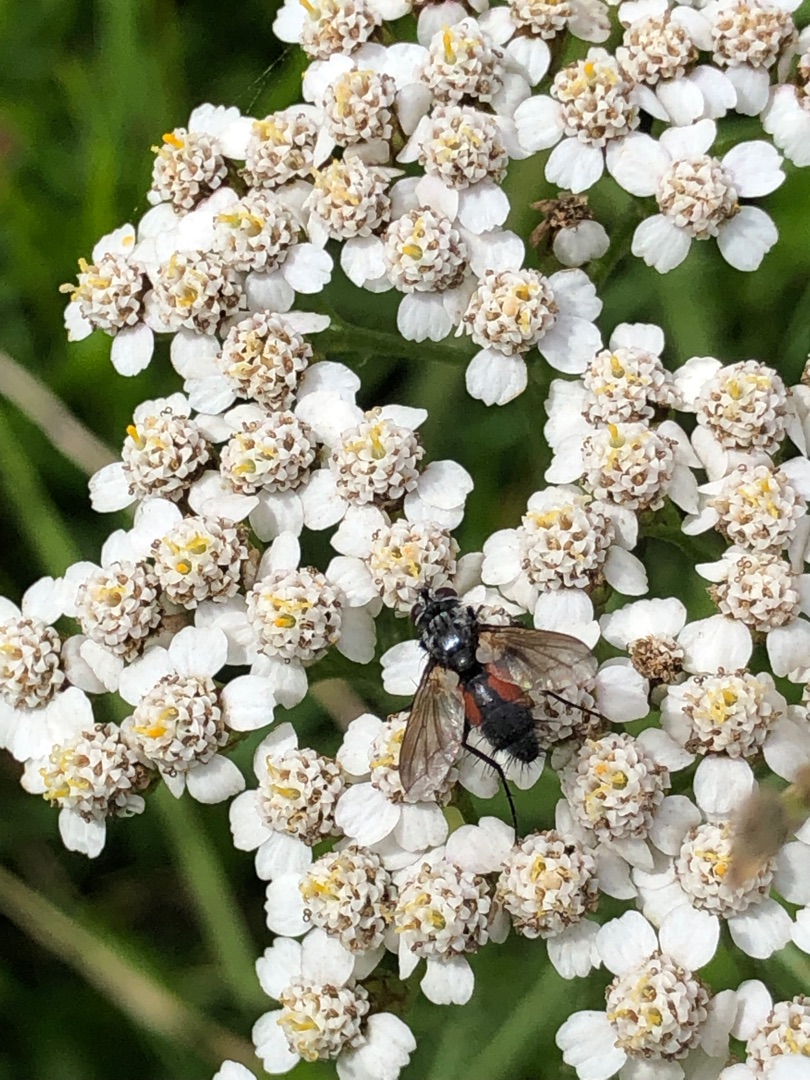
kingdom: Animalia
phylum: Arthropoda
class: Insecta
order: Diptera
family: Tachinidae
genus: Eriothrix
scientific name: Eriothrix rufomaculatus
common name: Rød snylteflue
